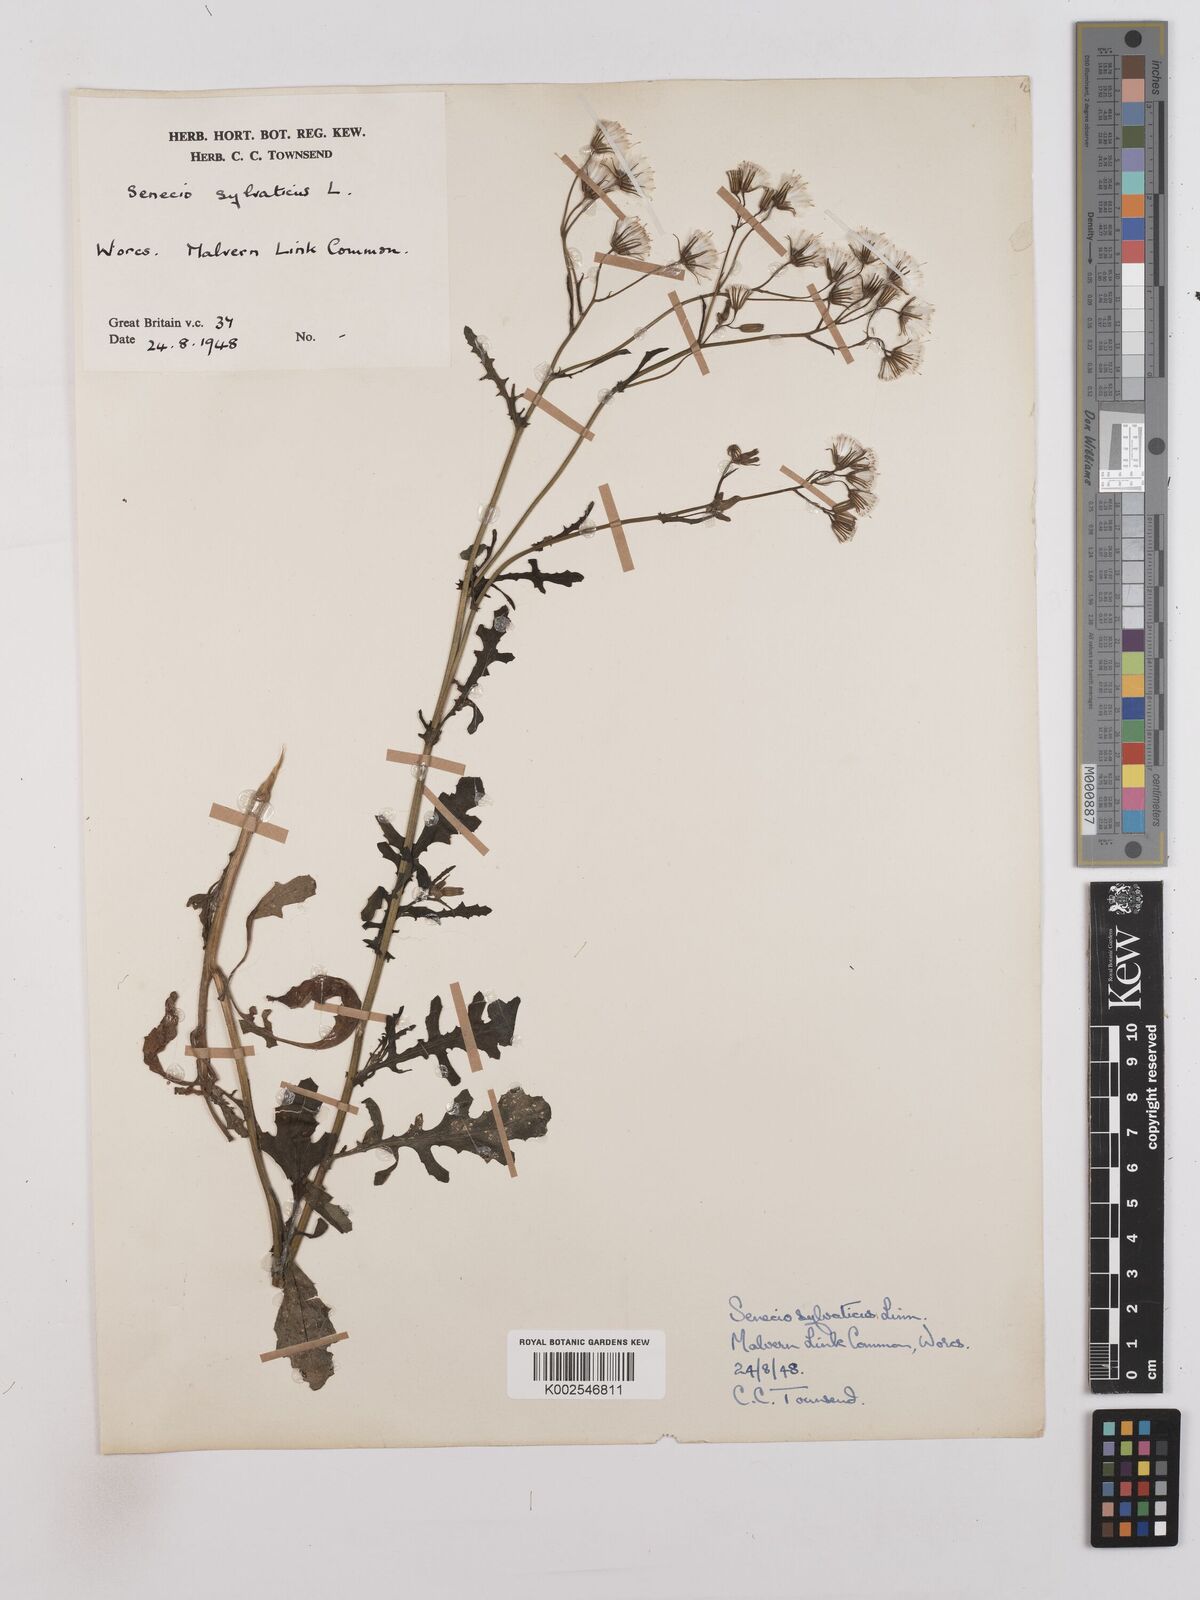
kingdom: Plantae
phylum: Tracheophyta
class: Magnoliopsida
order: Asterales
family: Asteraceae
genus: Senecio
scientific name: Senecio sylvaticus
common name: Woodland ragwort
